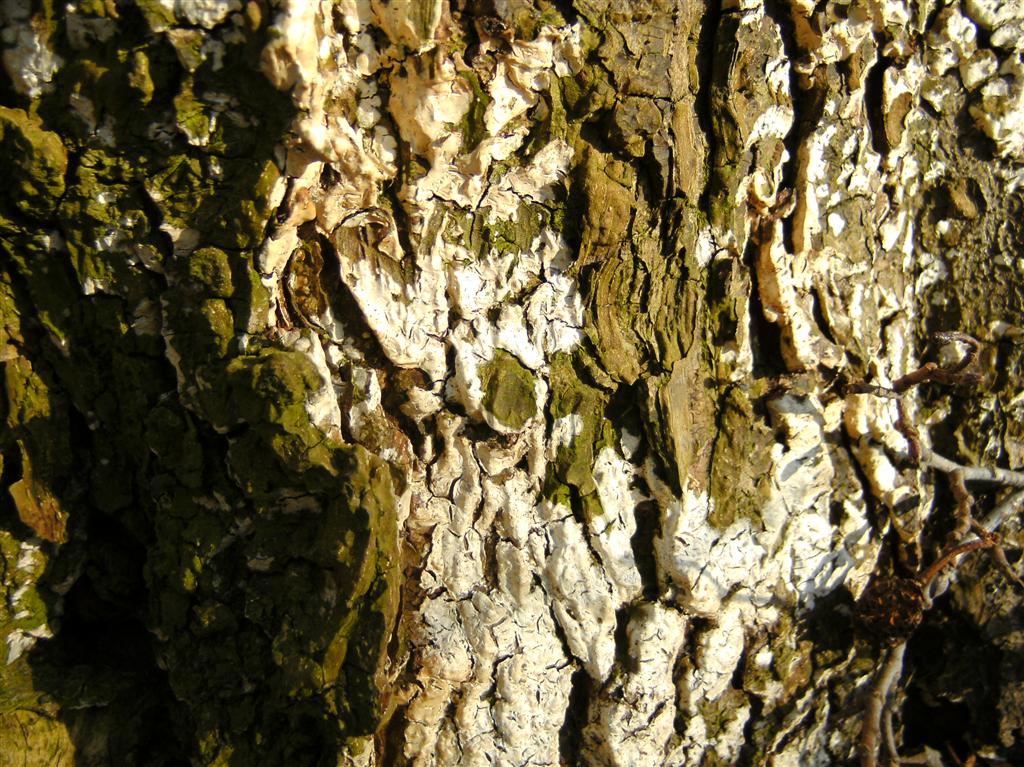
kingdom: Fungi
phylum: Basidiomycota
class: Agaricomycetes
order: Agaricales
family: Radulomycetaceae
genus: Radulomyces
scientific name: Radulomyces confluens
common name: glat naftalinskind
